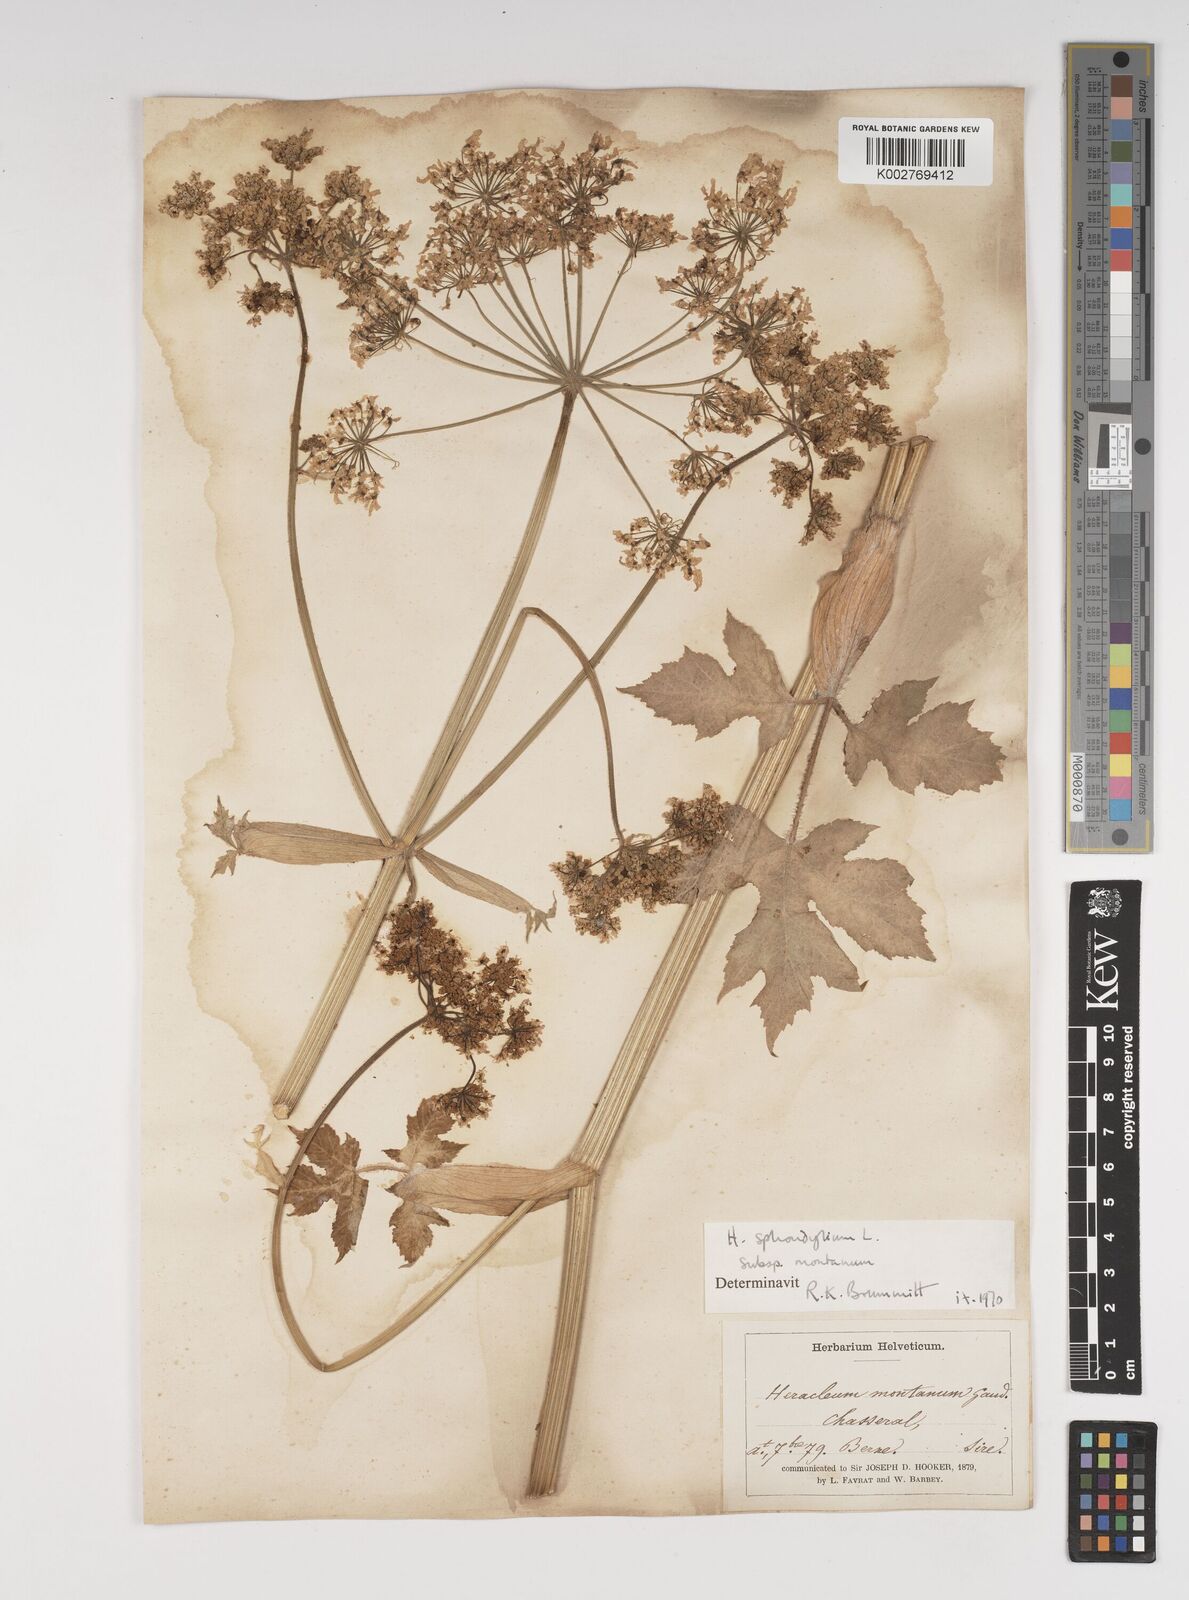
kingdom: Plantae
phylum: Tracheophyta
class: Magnoliopsida
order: Apiales
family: Apiaceae
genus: Heracleum
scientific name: Heracleum sphondylium
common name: Hogweed
